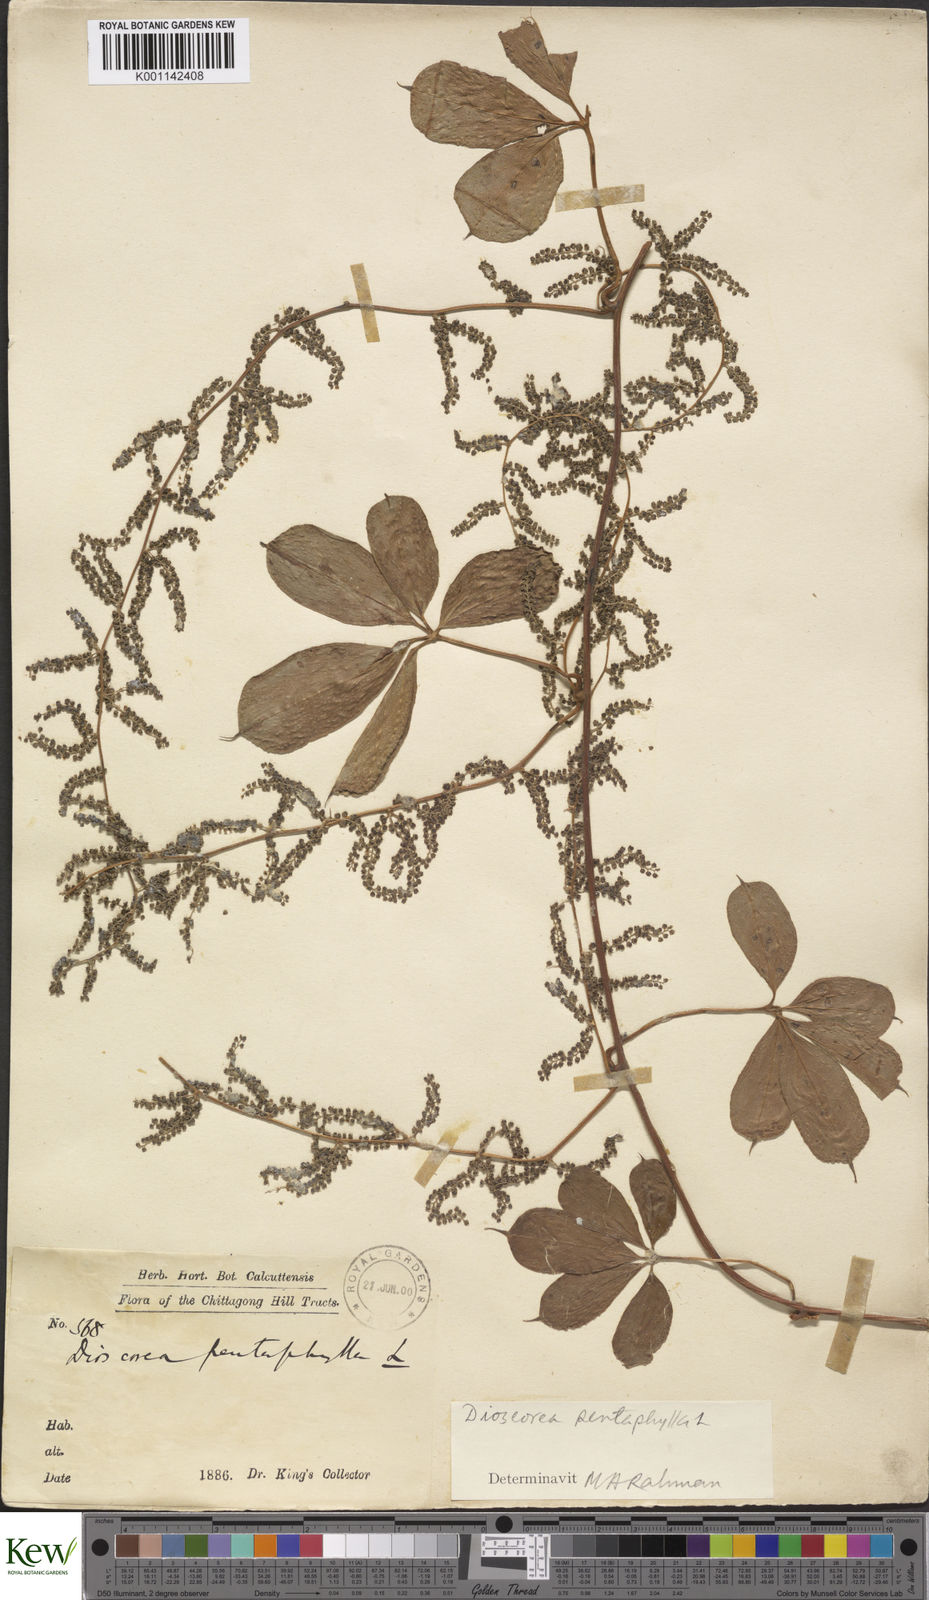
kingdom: Plantae
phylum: Tracheophyta
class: Liliopsida
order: Dioscoreales
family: Dioscoreaceae
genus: Dioscorea
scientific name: Dioscorea pentaphylla
